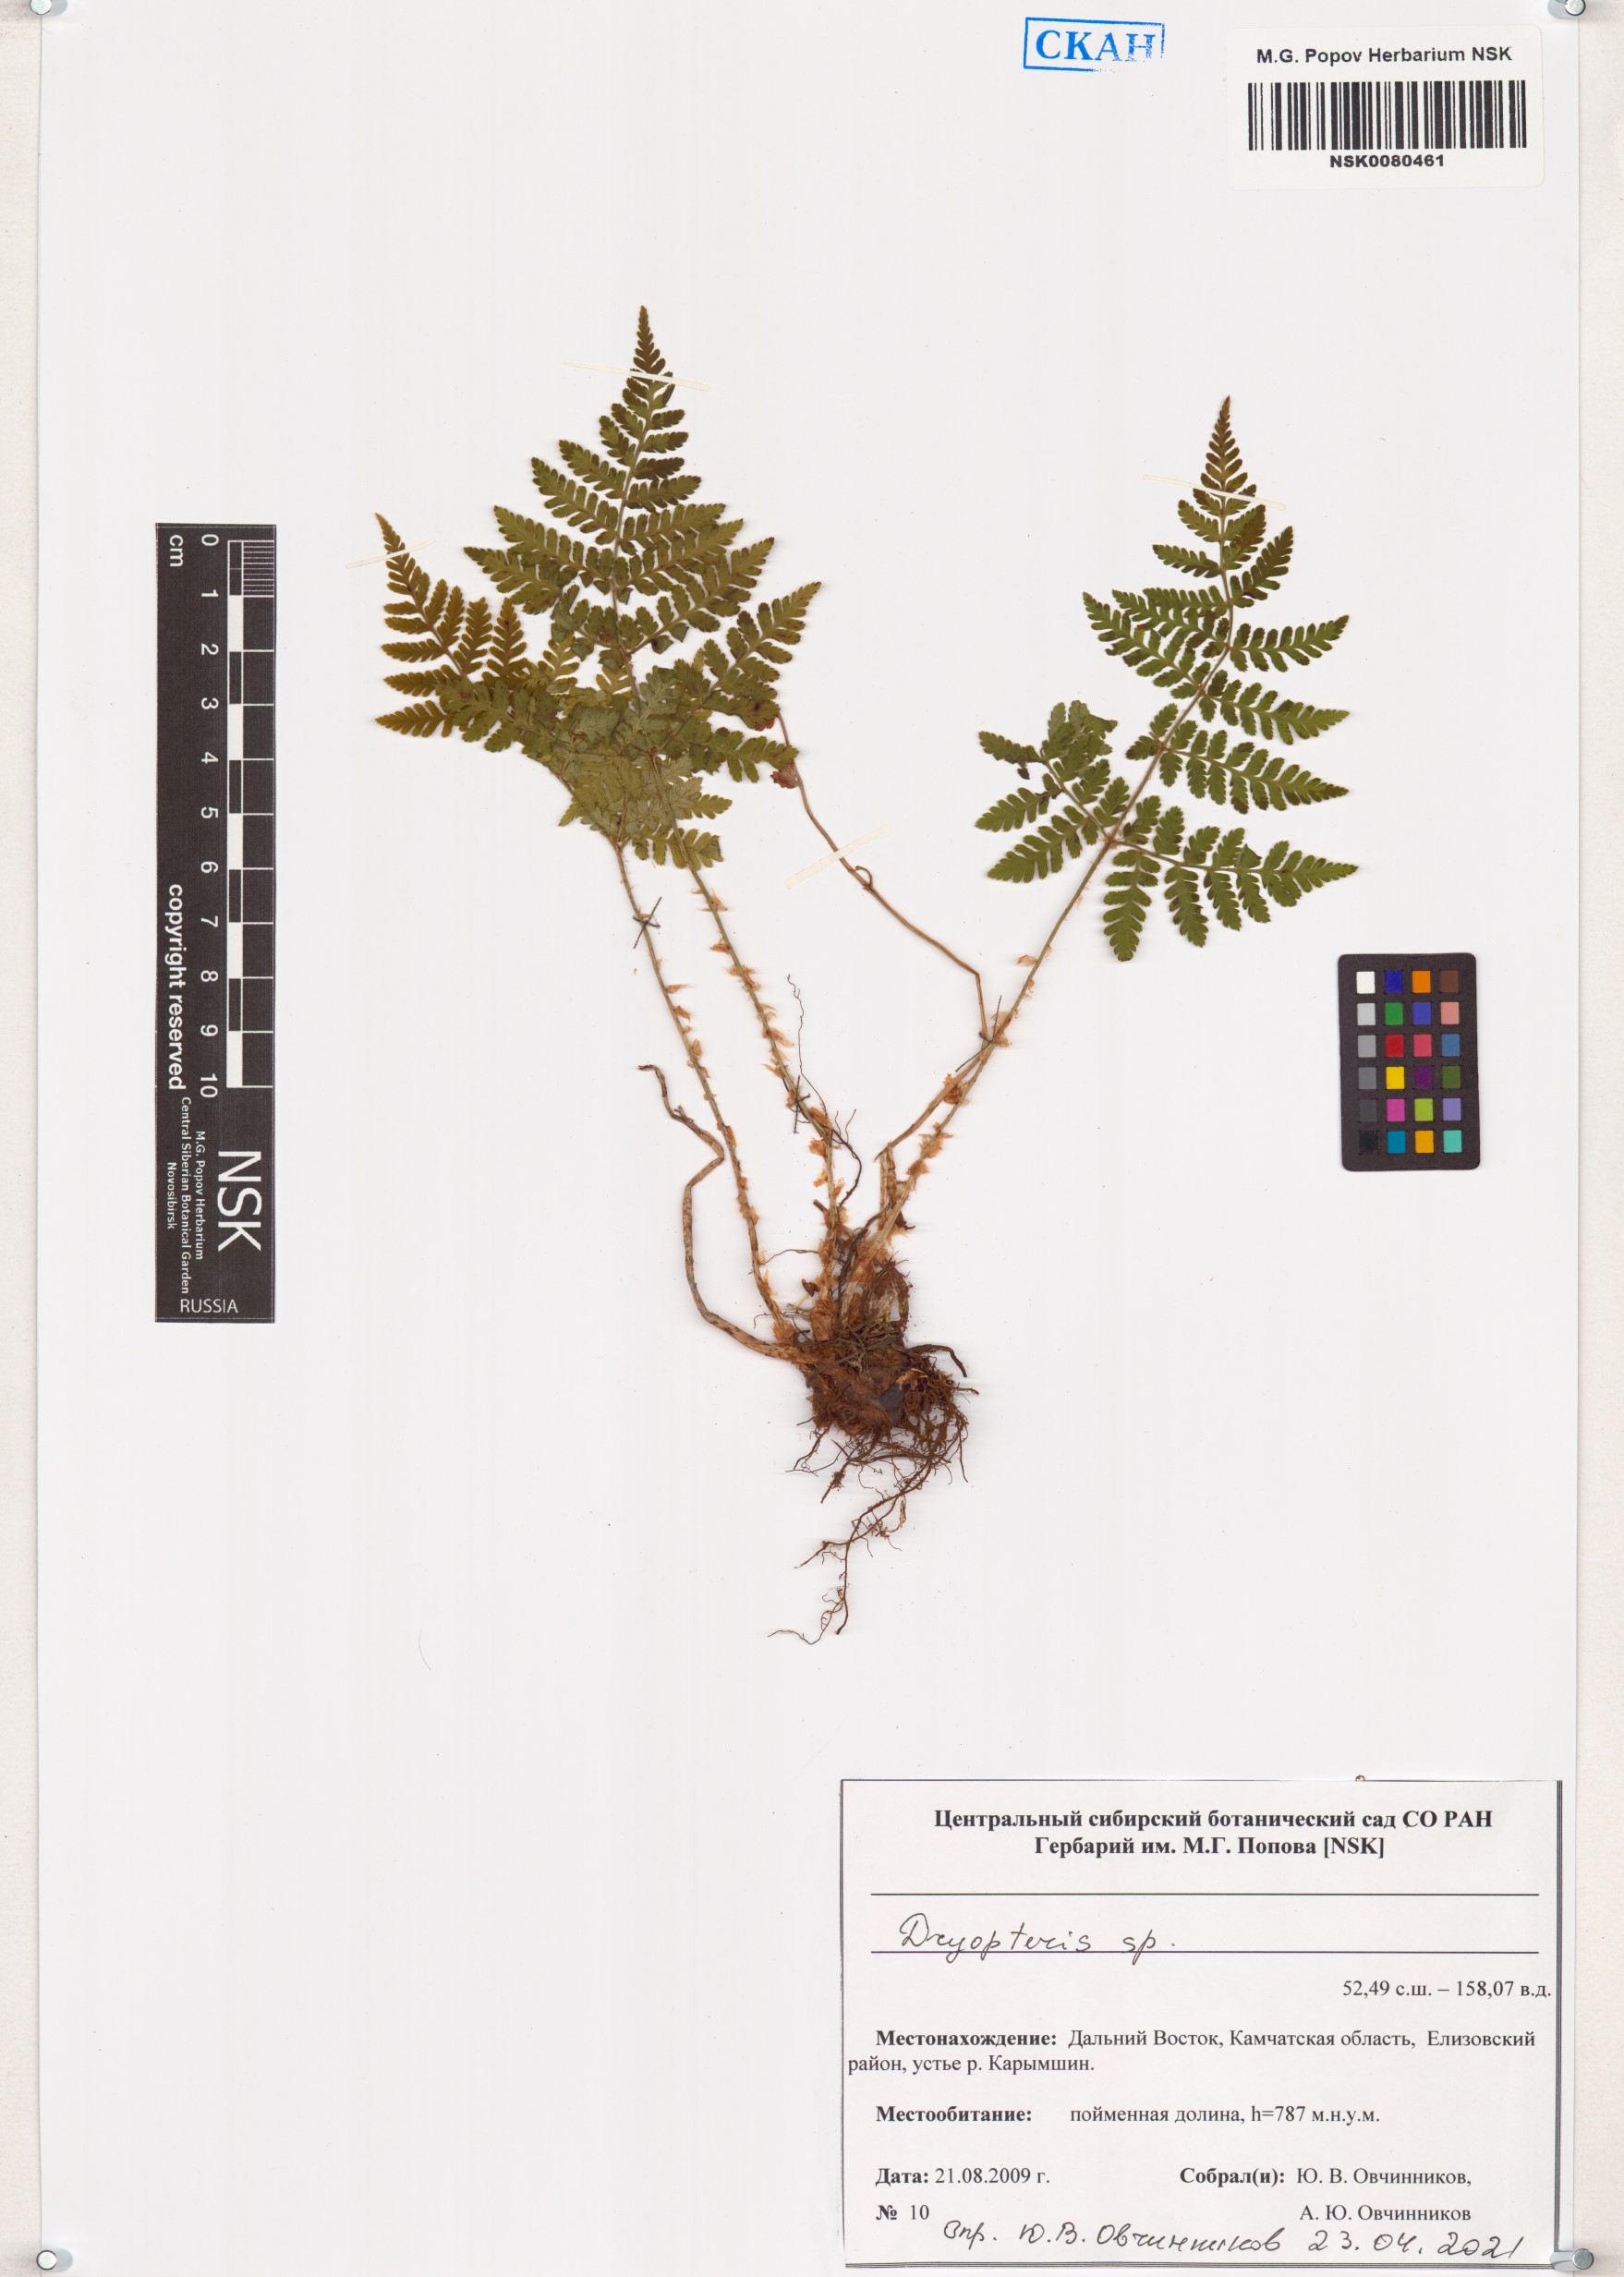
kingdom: Plantae
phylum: Tracheophyta
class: Polypodiopsida
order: Polypodiales
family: Dryopteridaceae
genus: Dryopteris
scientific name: Dryopteris
